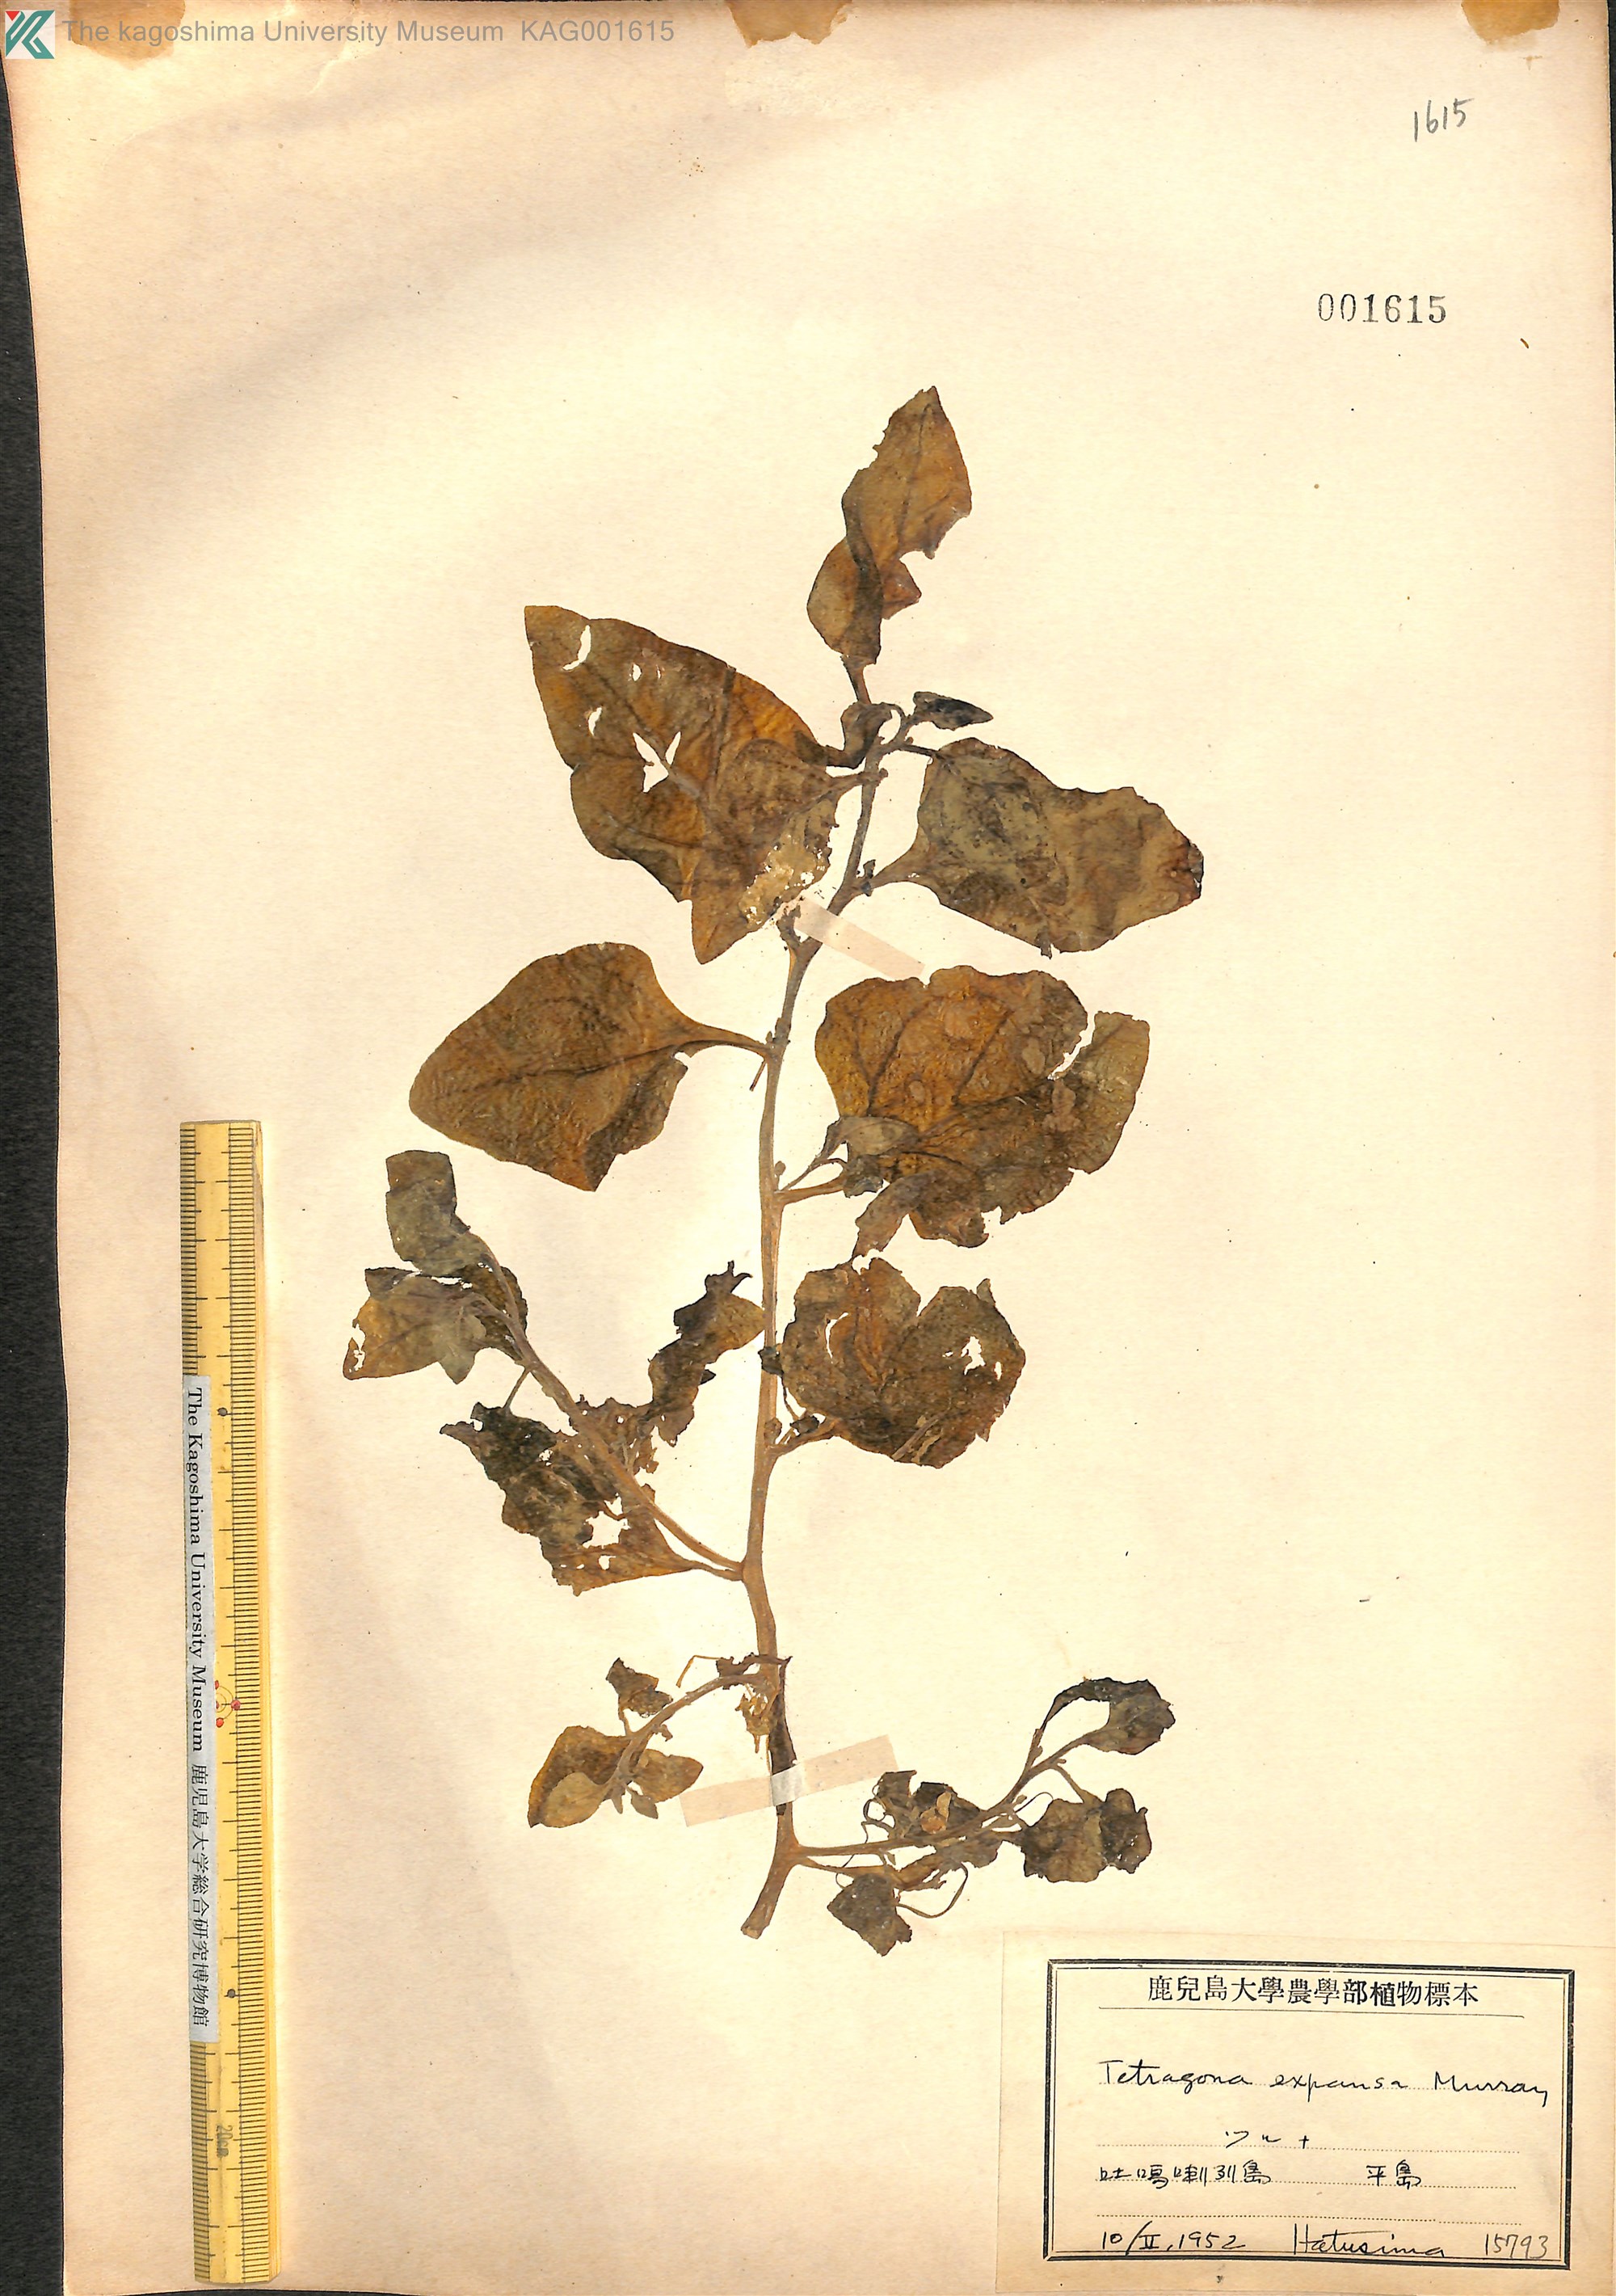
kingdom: Plantae
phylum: Tracheophyta
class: Magnoliopsida
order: Caryophyllales
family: Aizoaceae
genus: Tetragonia
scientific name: Tetragonia tetragonoides
